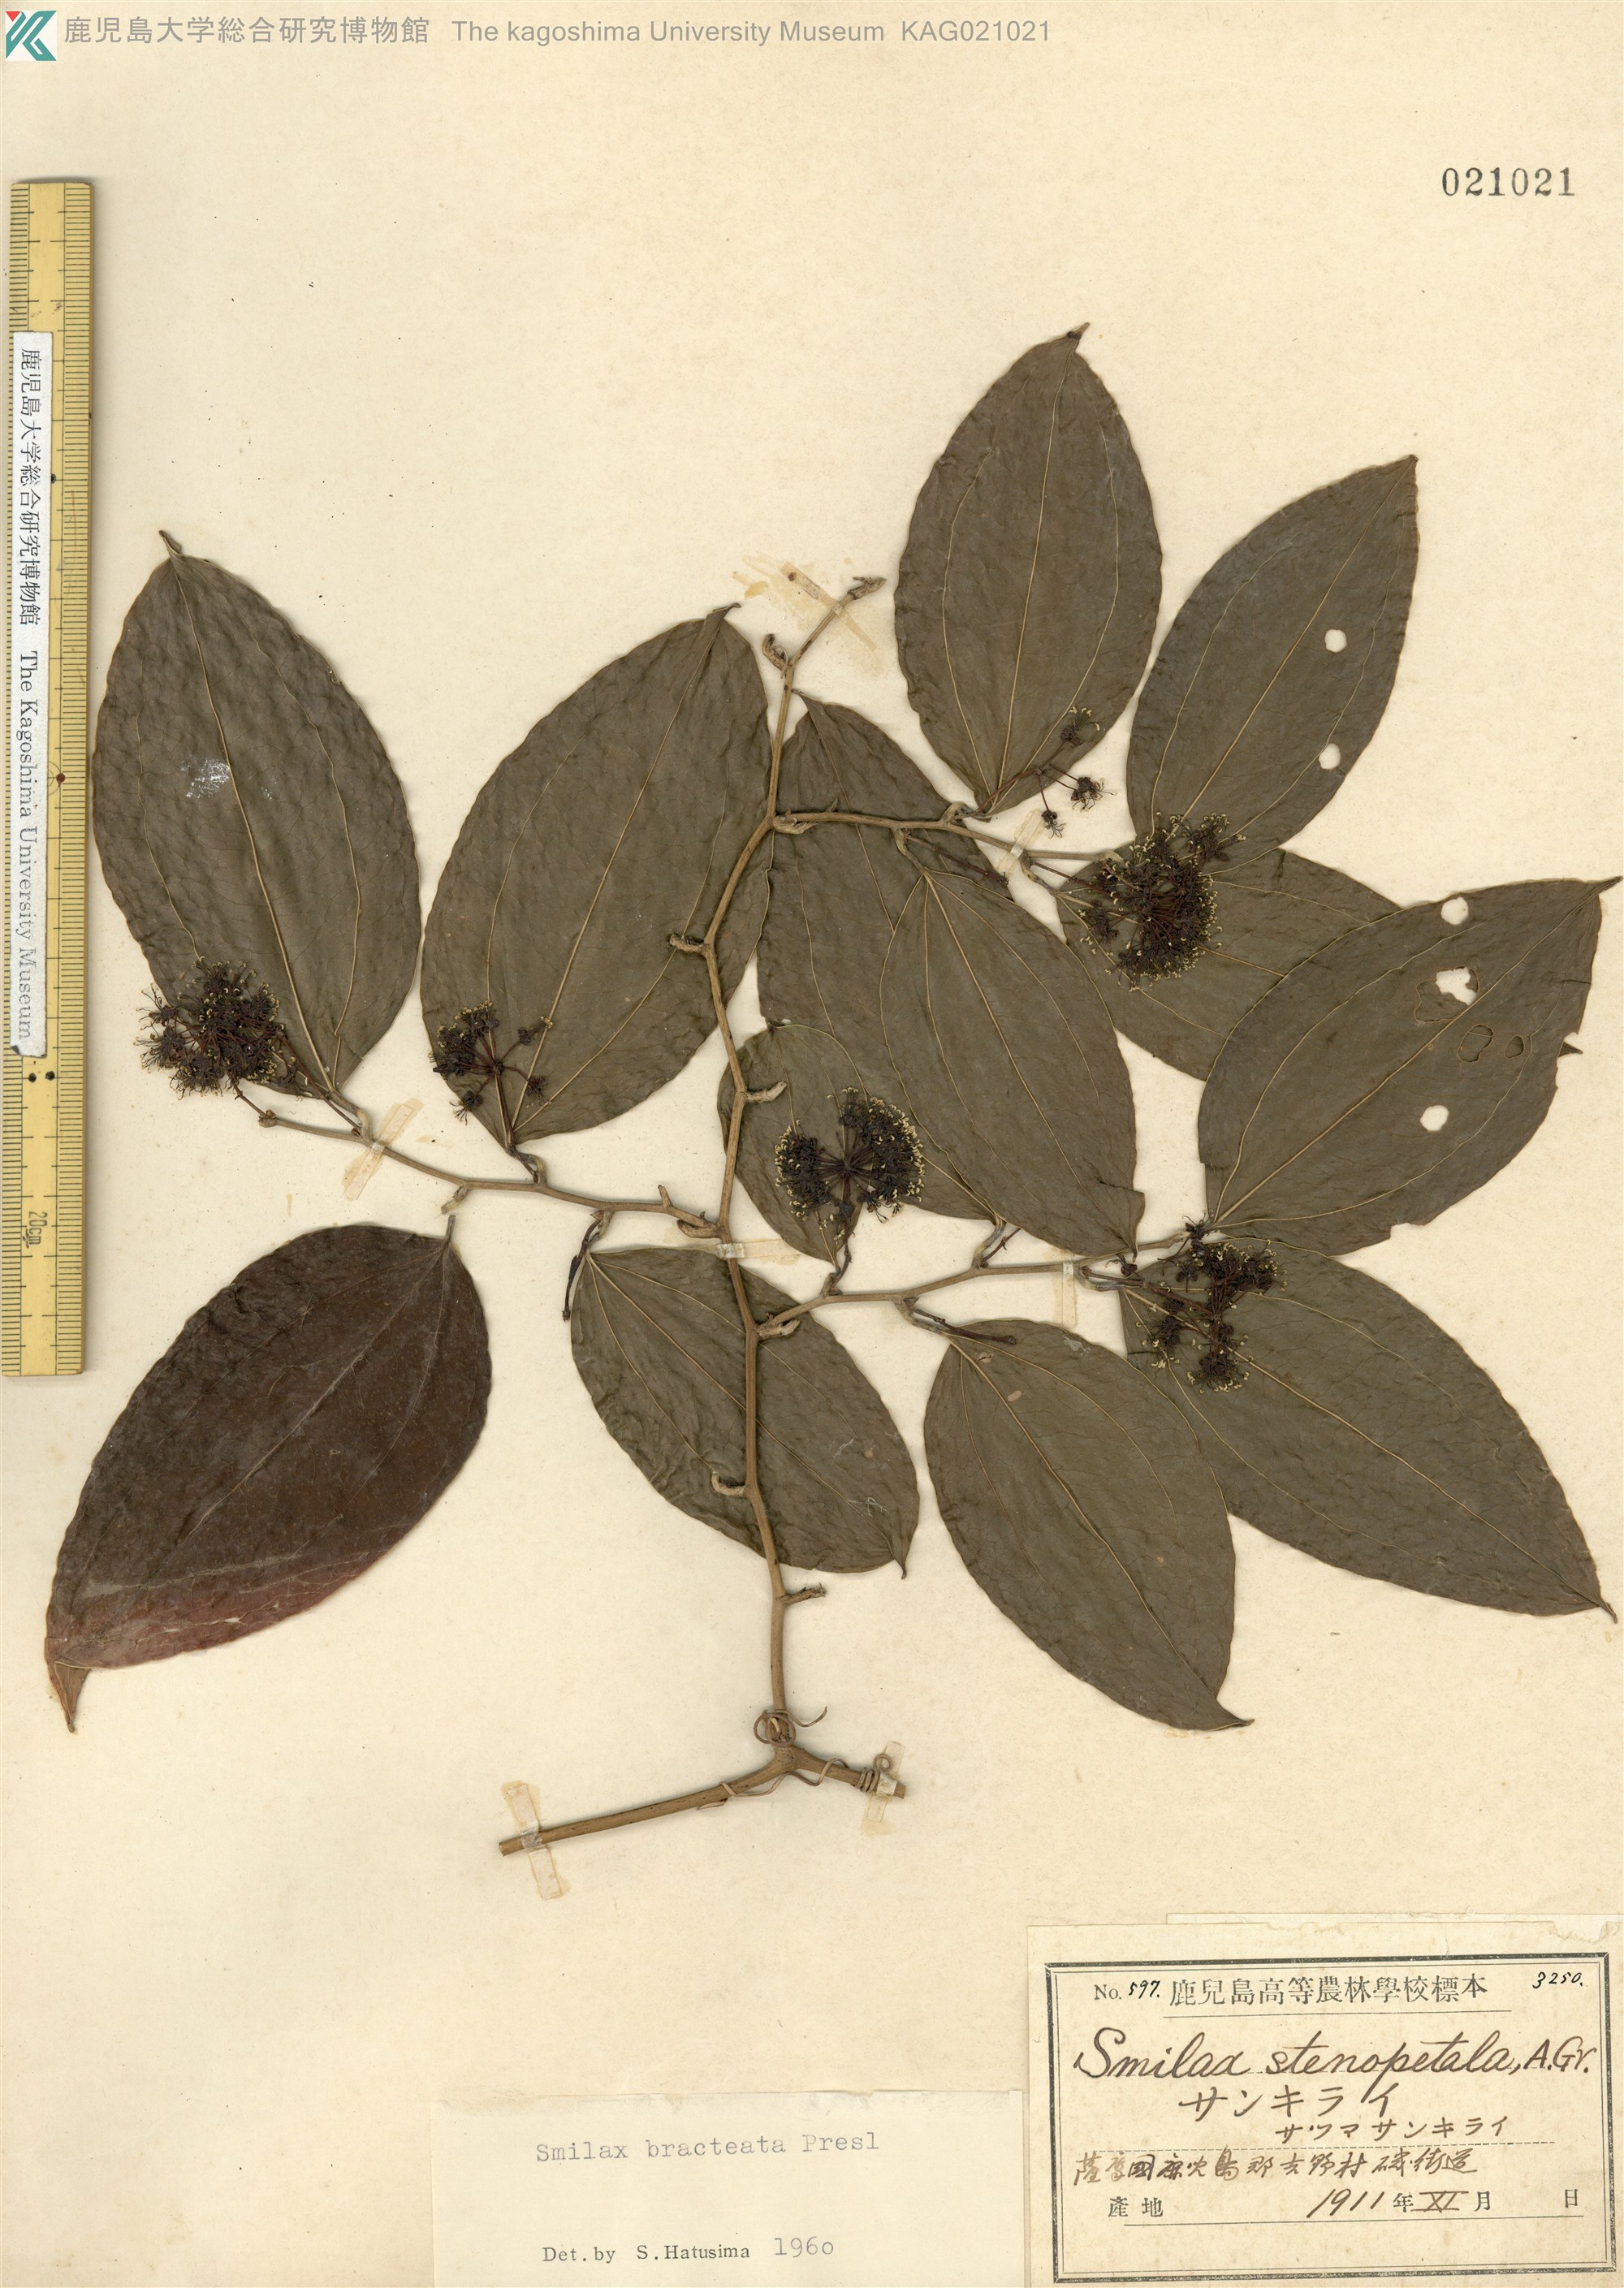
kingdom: Plantae
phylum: Tracheophyta
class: Liliopsida
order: Liliales
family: Smilacaceae
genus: Smilax
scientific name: Smilax bracteata
